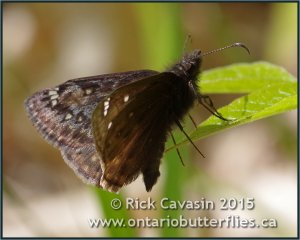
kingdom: Animalia
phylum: Arthropoda
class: Insecta
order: Lepidoptera
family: Hesperiidae
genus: Gesta
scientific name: Gesta
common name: Juvenal's Duskywing
